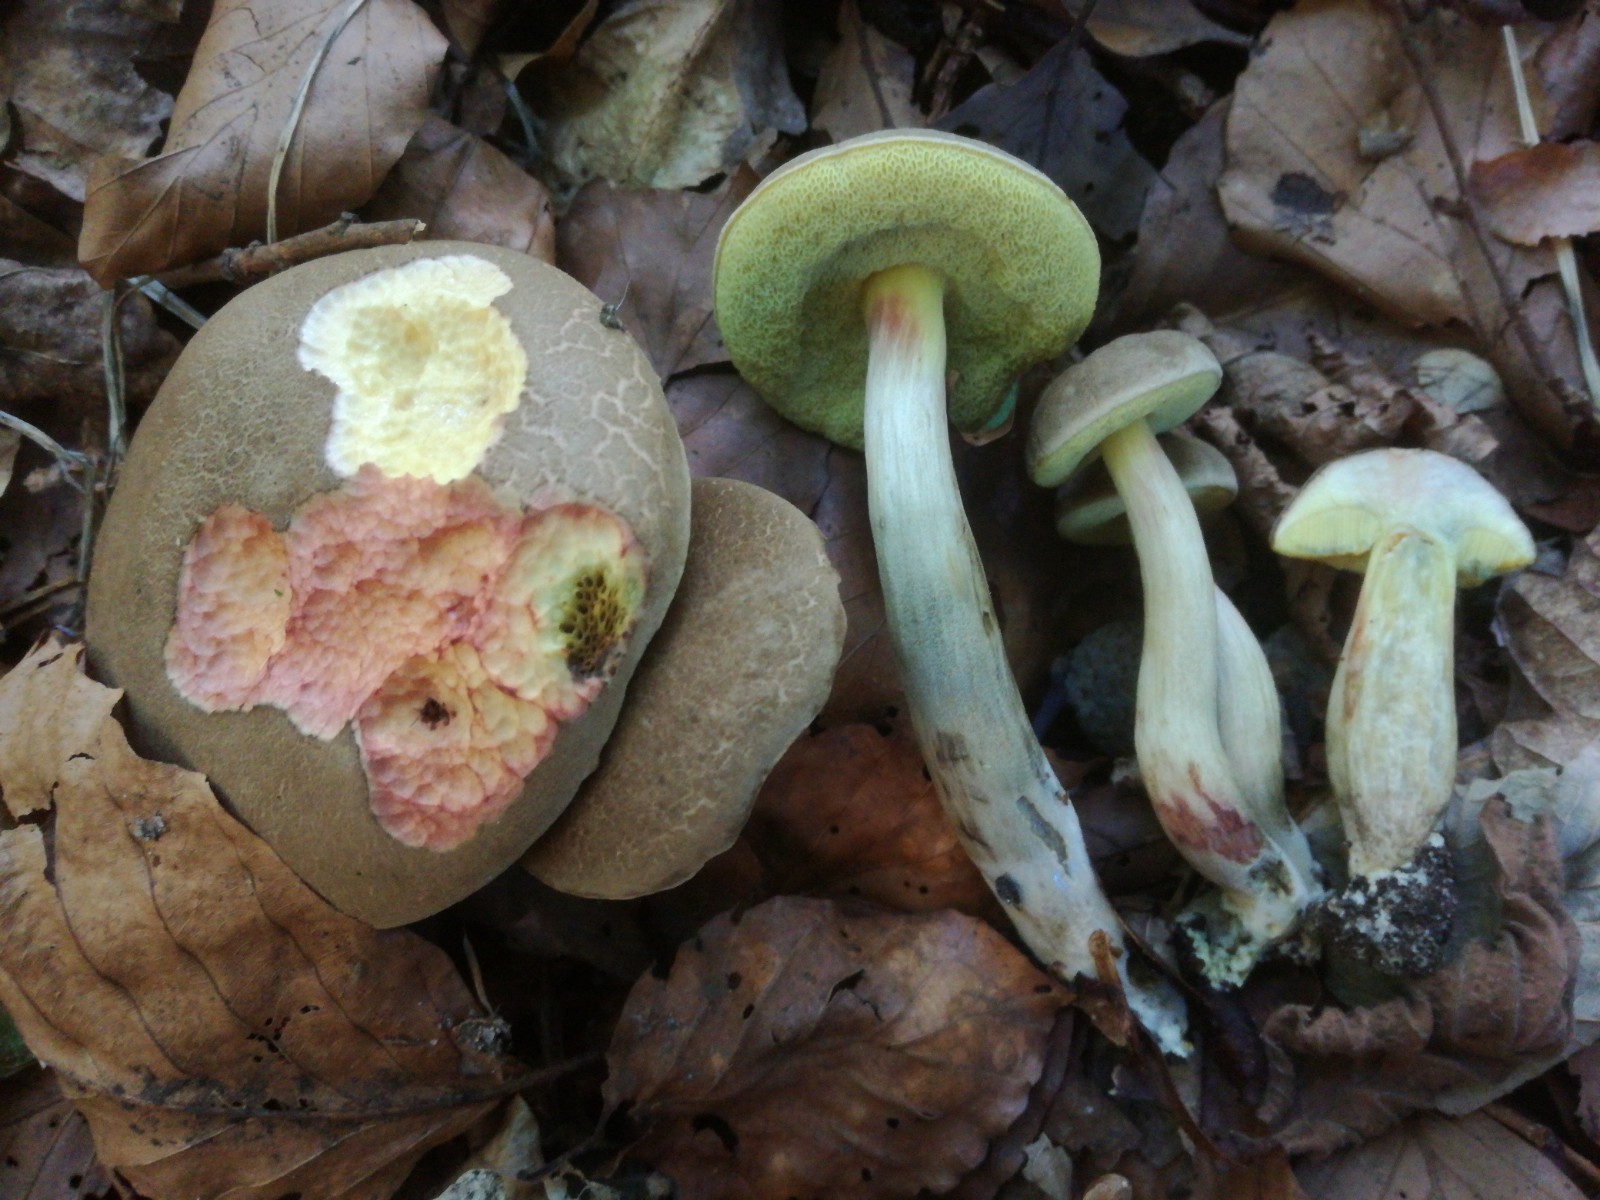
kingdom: Fungi
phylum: Basidiomycota
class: Agaricomycetes
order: Boletales
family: Boletaceae
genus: Xerocomellus
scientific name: Xerocomellus chrysenteron
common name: rødsprukken rørhat
